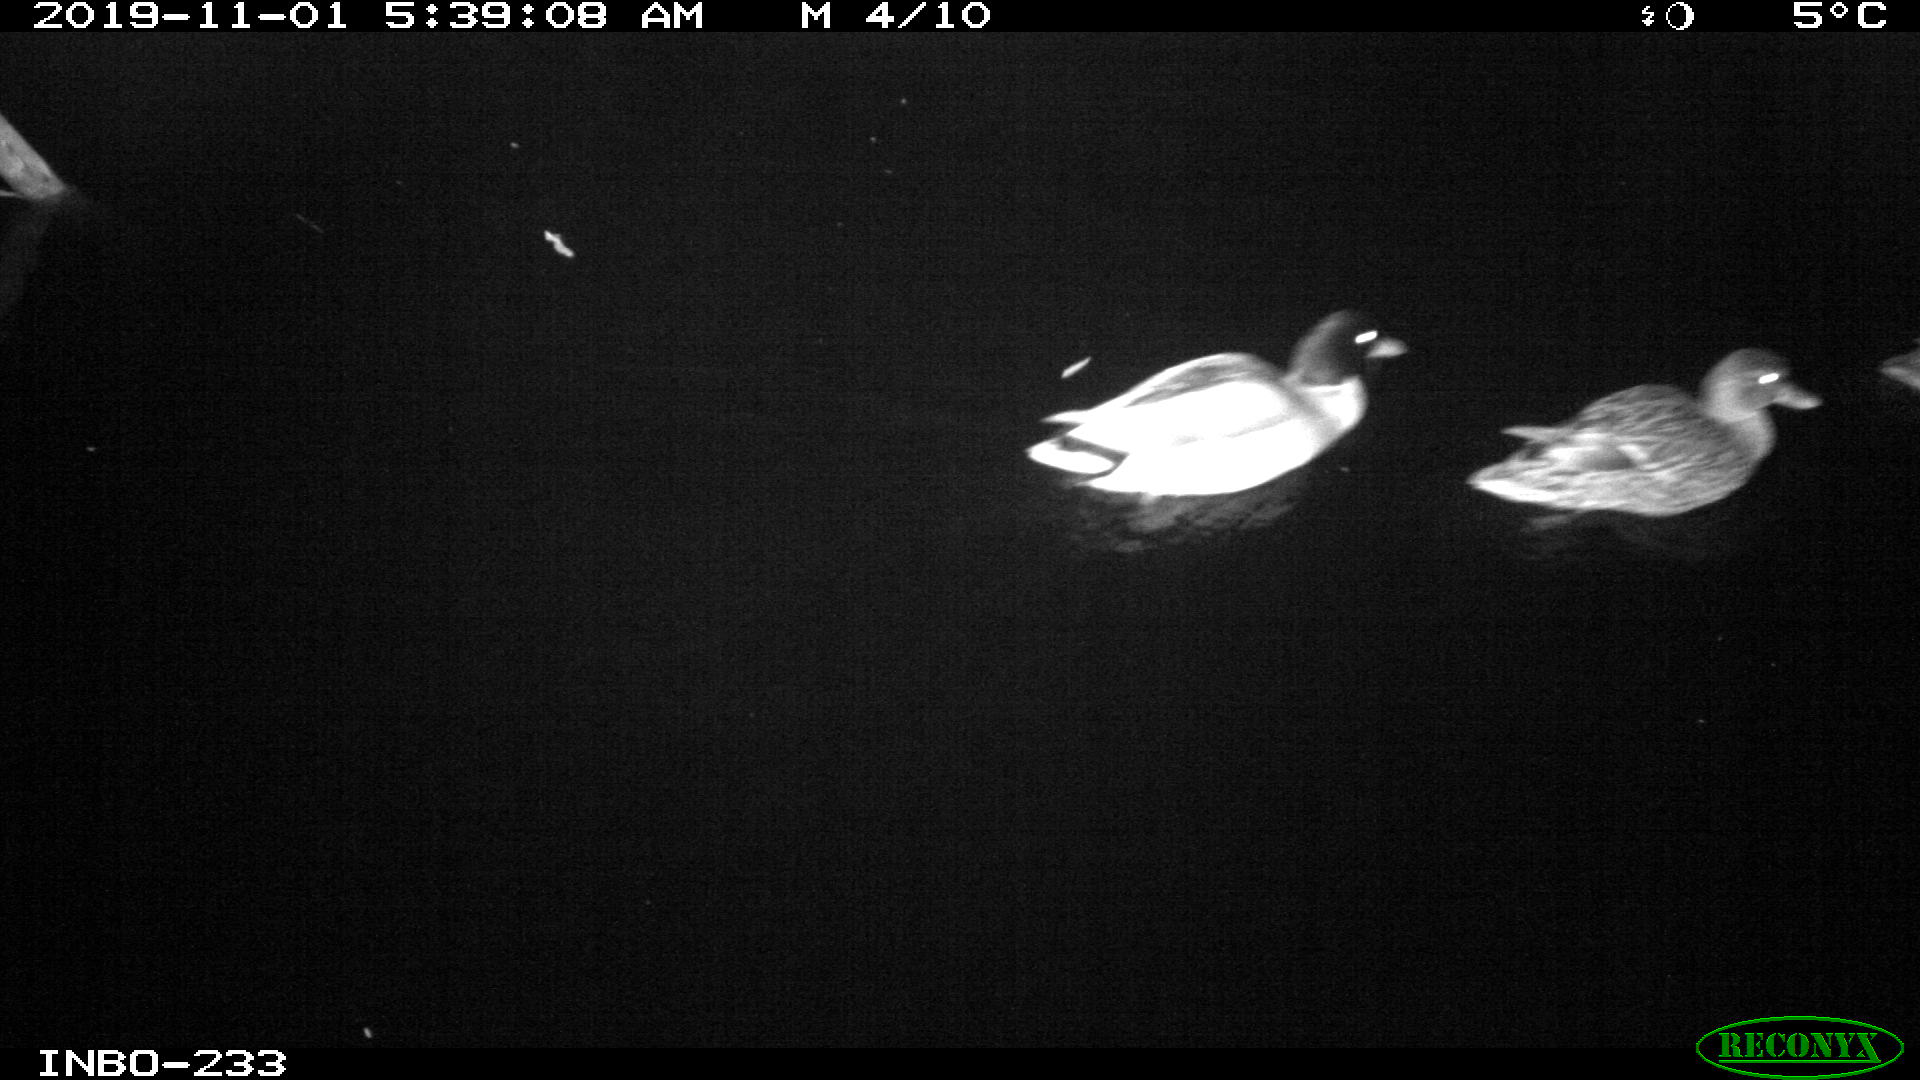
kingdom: Animalia
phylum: Chordata
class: Aves
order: Anseriformes
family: Anatidae
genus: Anas
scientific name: Anas platyrhynchos
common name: Mallard
